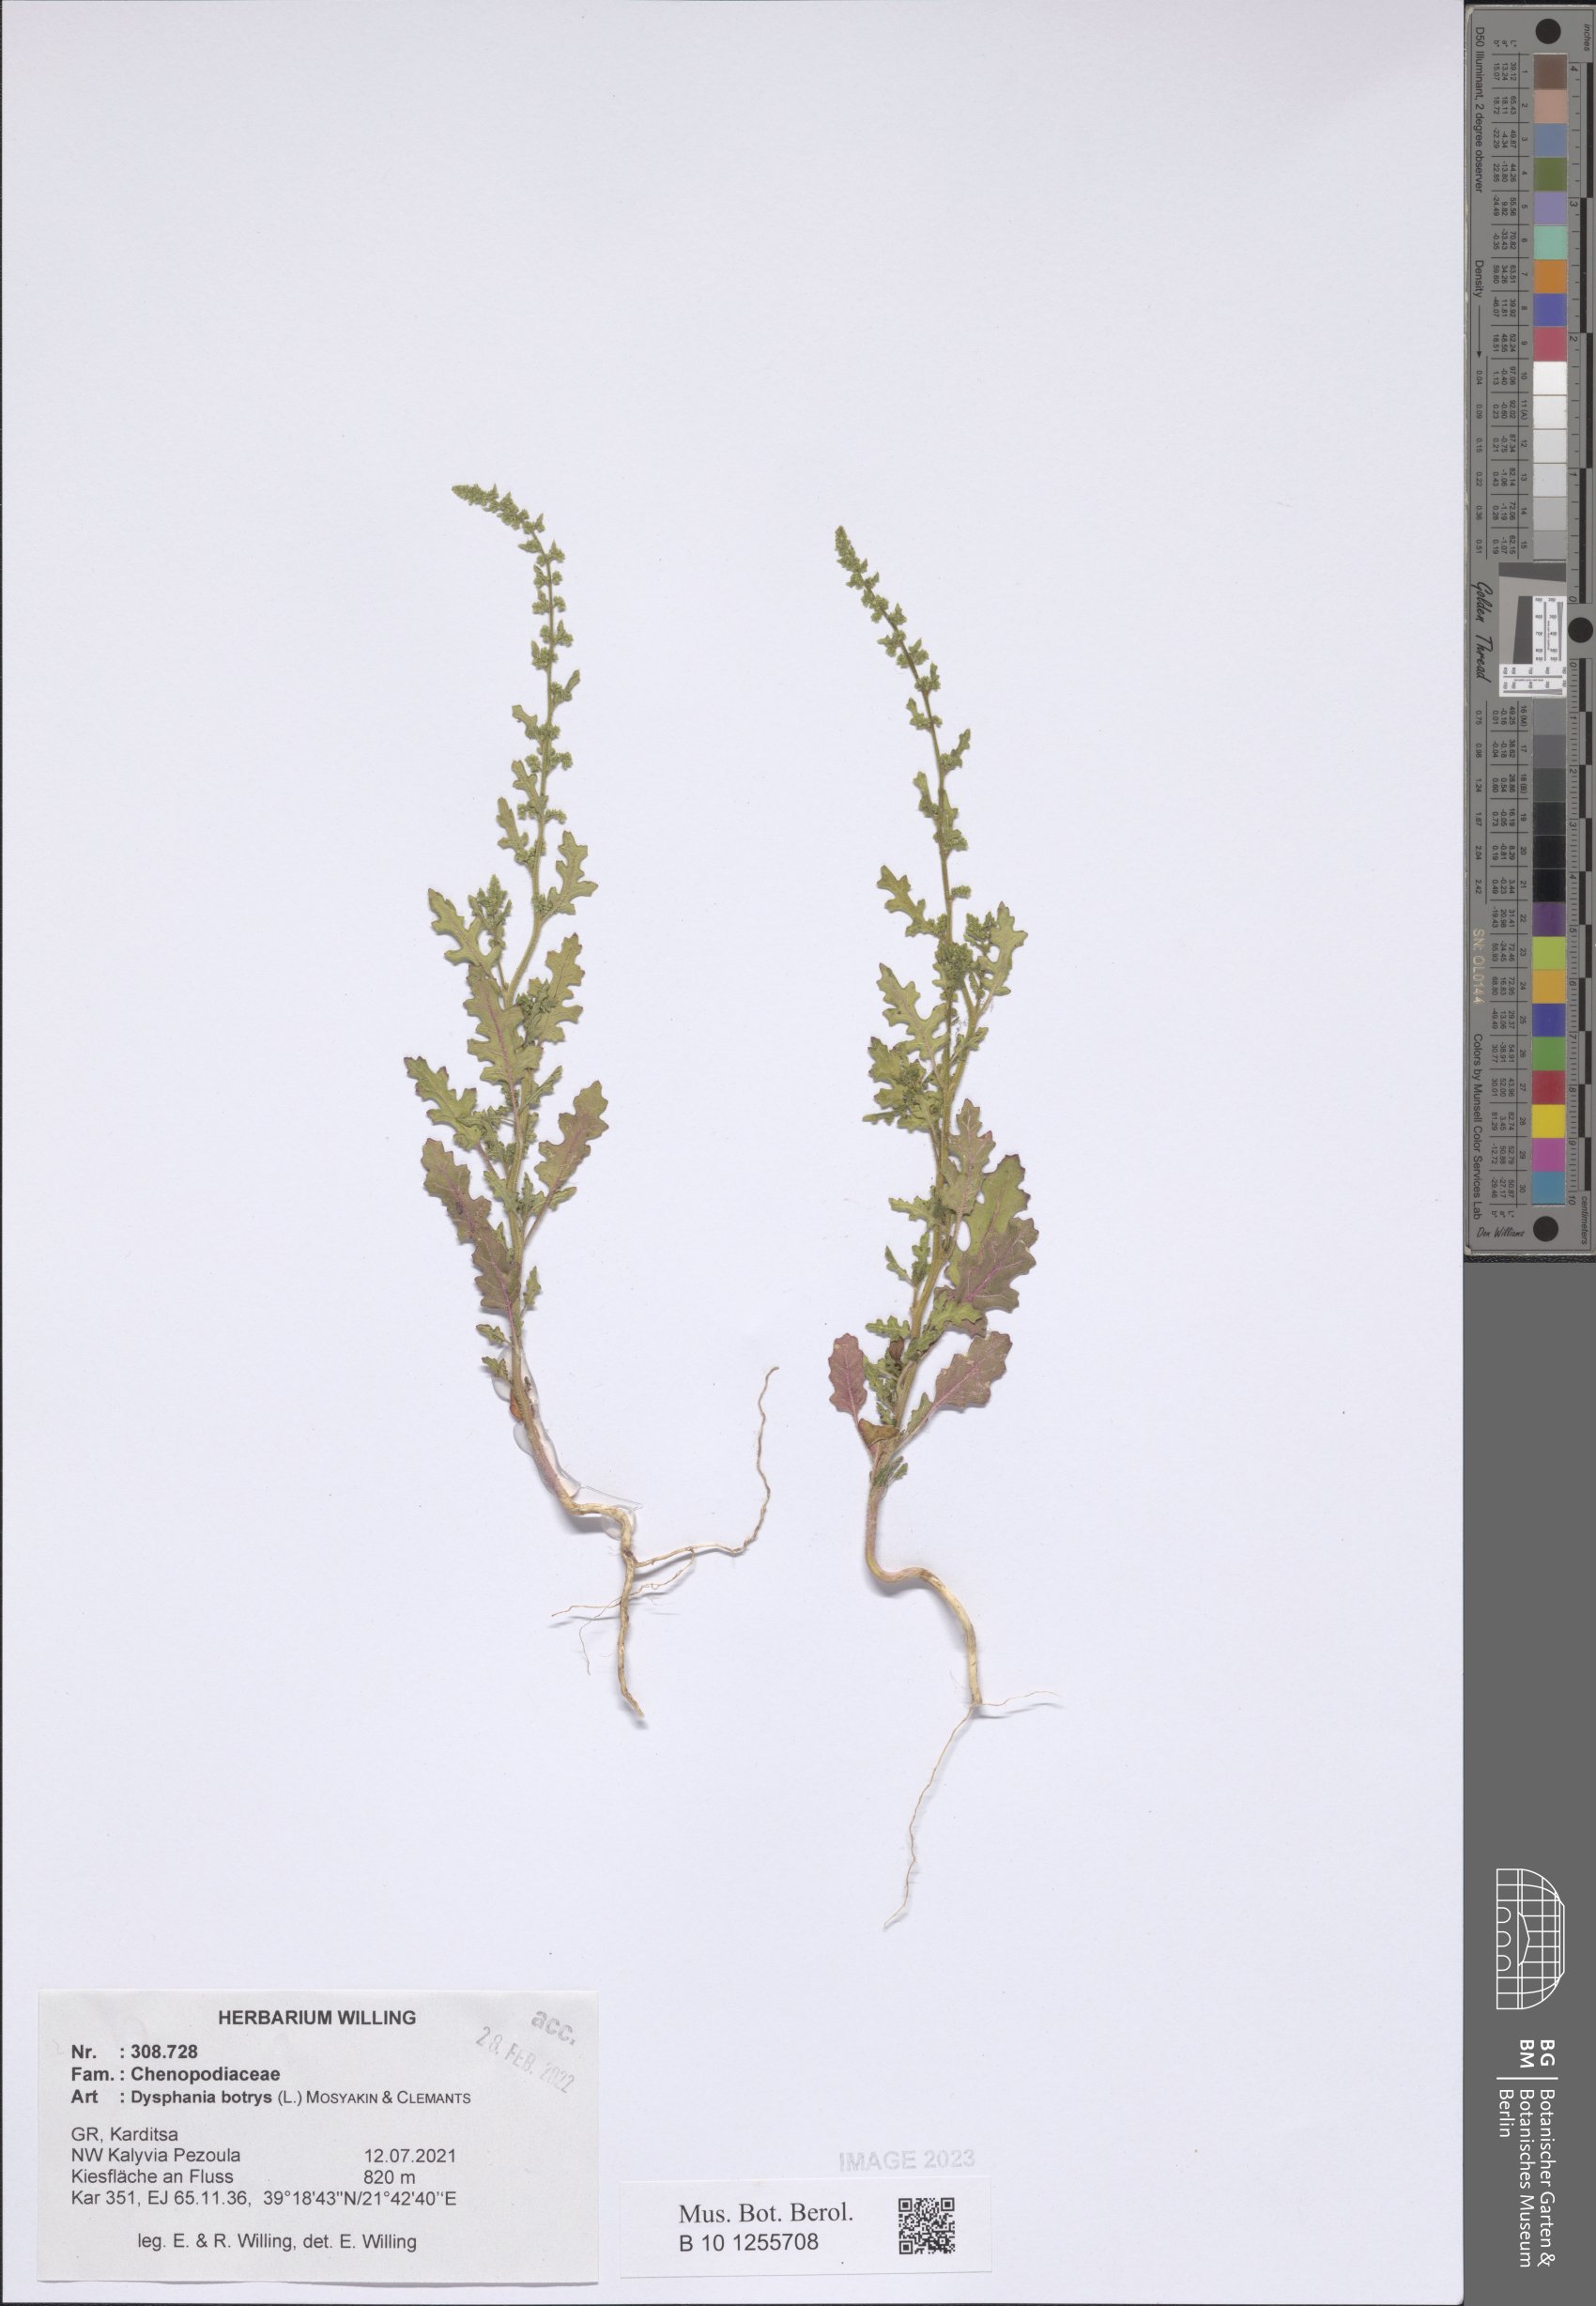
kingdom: Plantae
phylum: Tracheophyta
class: Magnoliopsida
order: Caryophyllales
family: Amaranthaceae
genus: Dysphania
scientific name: Dysphania botrys
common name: Feather-geranium
